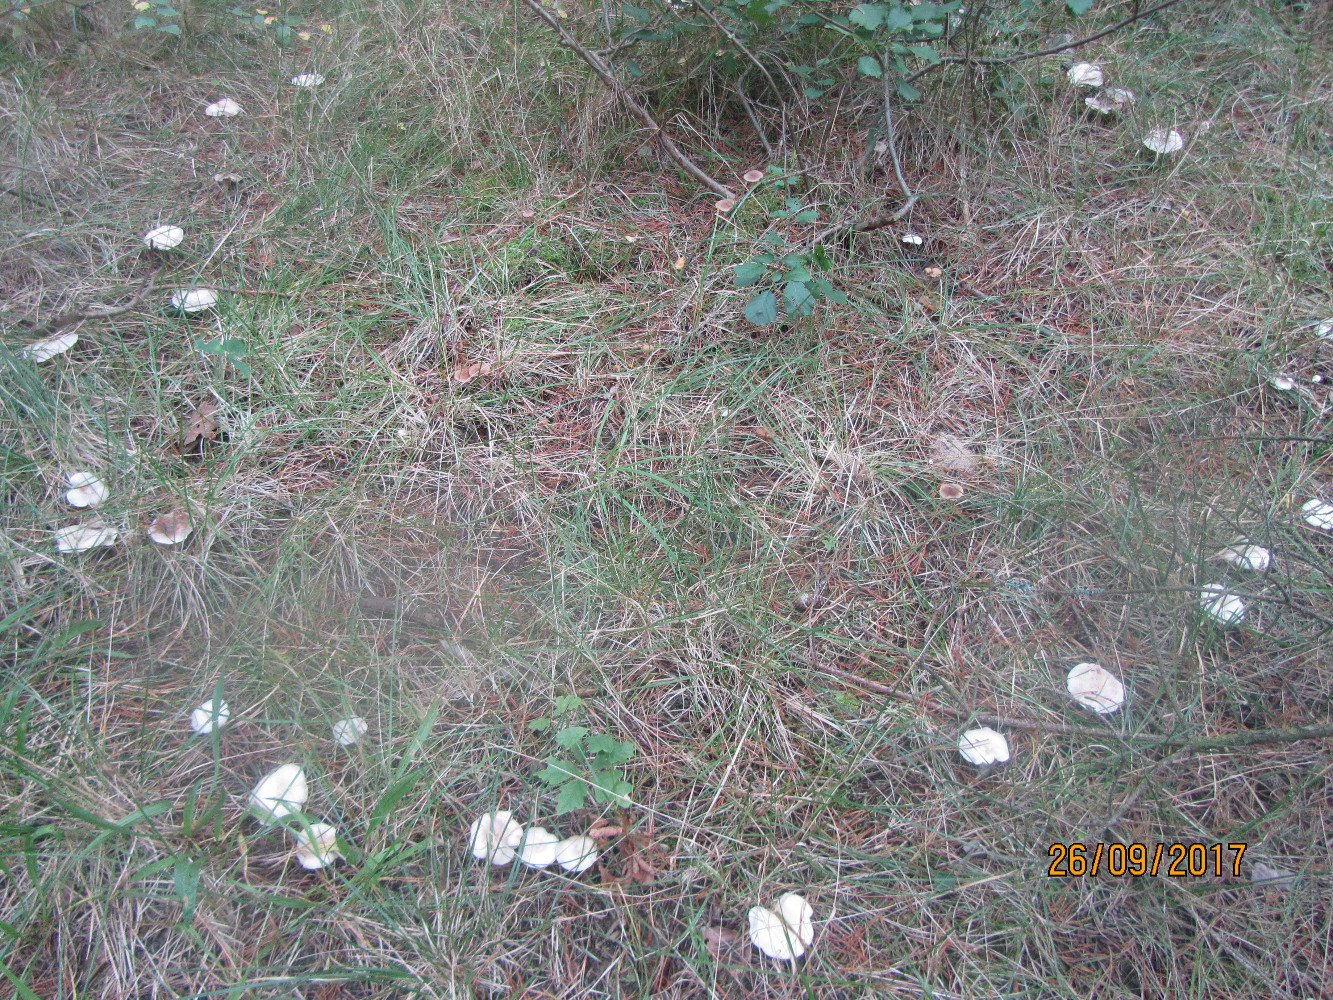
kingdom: Fungi
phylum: Basidiomycota
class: Agaricomycetes
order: Agaricales
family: Tricholomataceae
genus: Clitocybe
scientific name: Clitocybe agrestis
